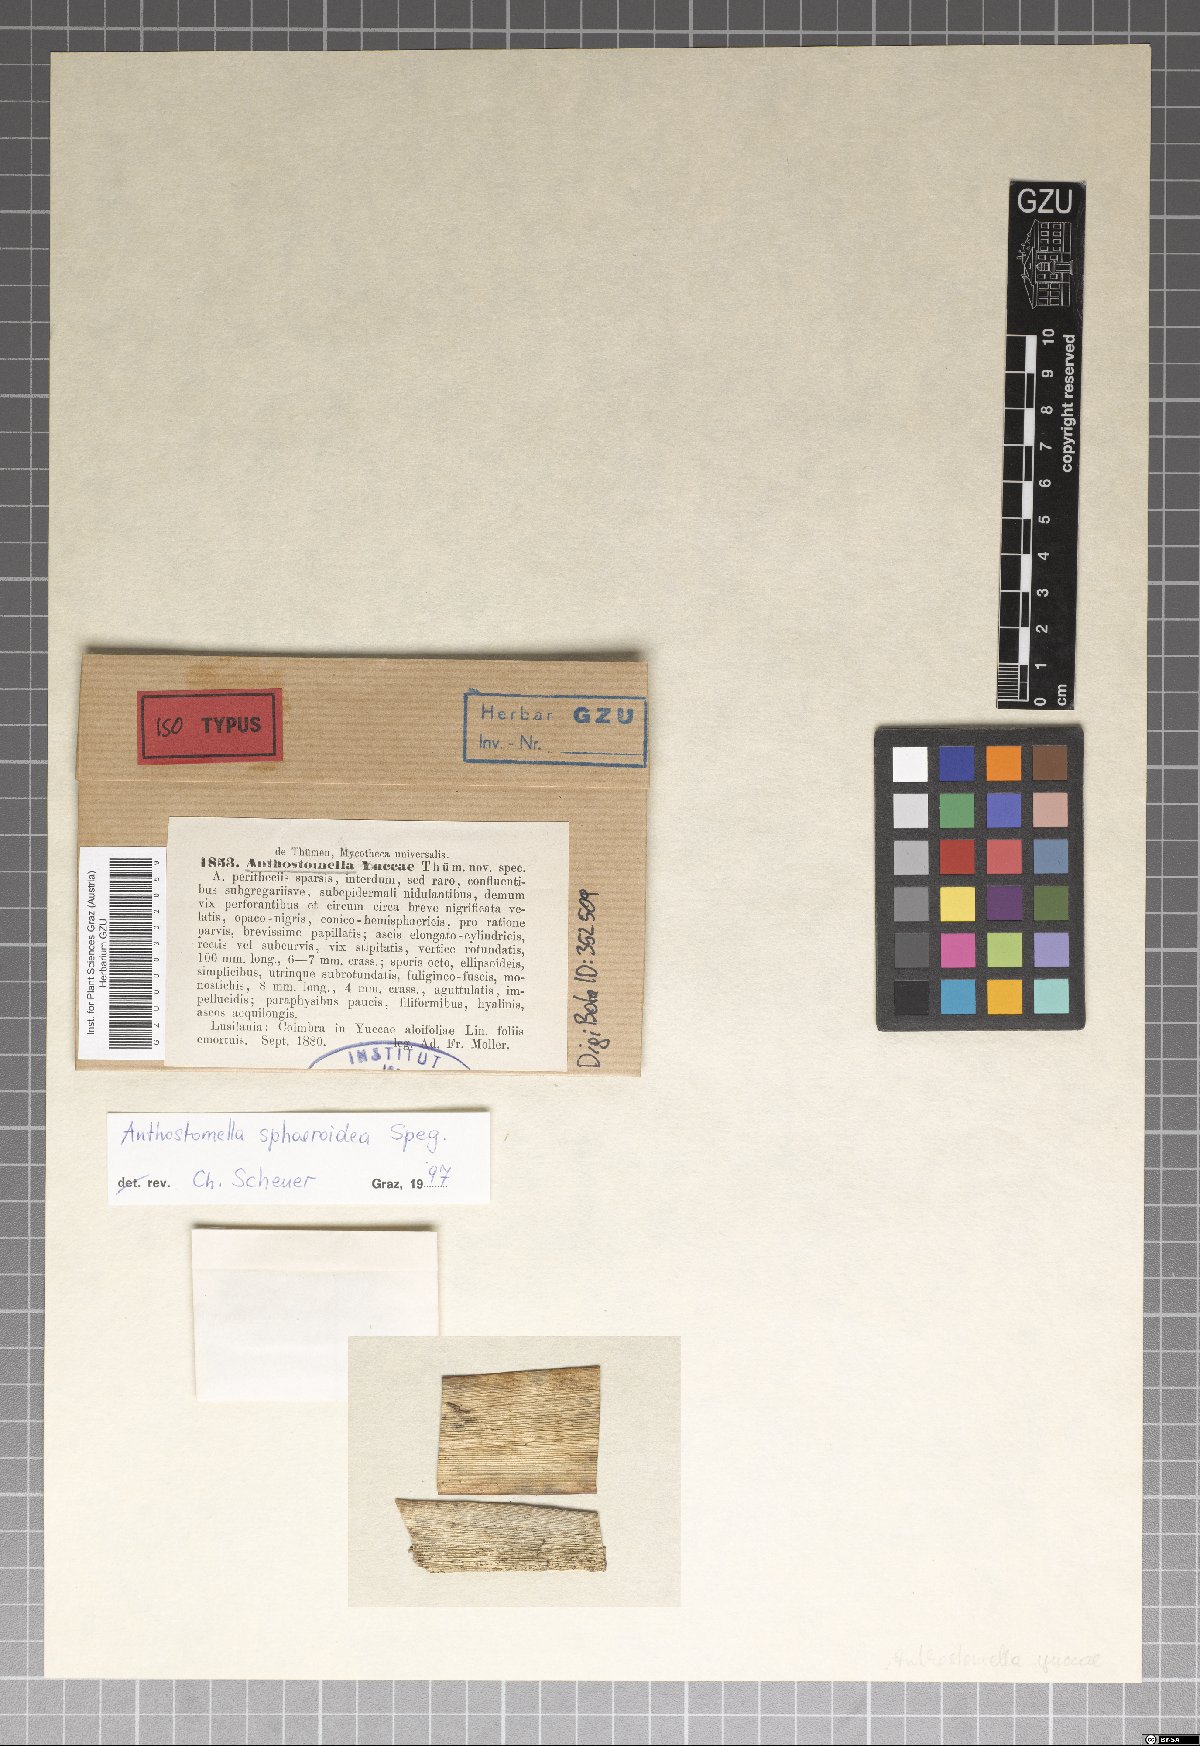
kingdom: Fungi
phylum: Ascomycota
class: Sordariomycetes
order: Xylariales
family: Xylariaceae
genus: Anthostomella
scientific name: Anthostomella
